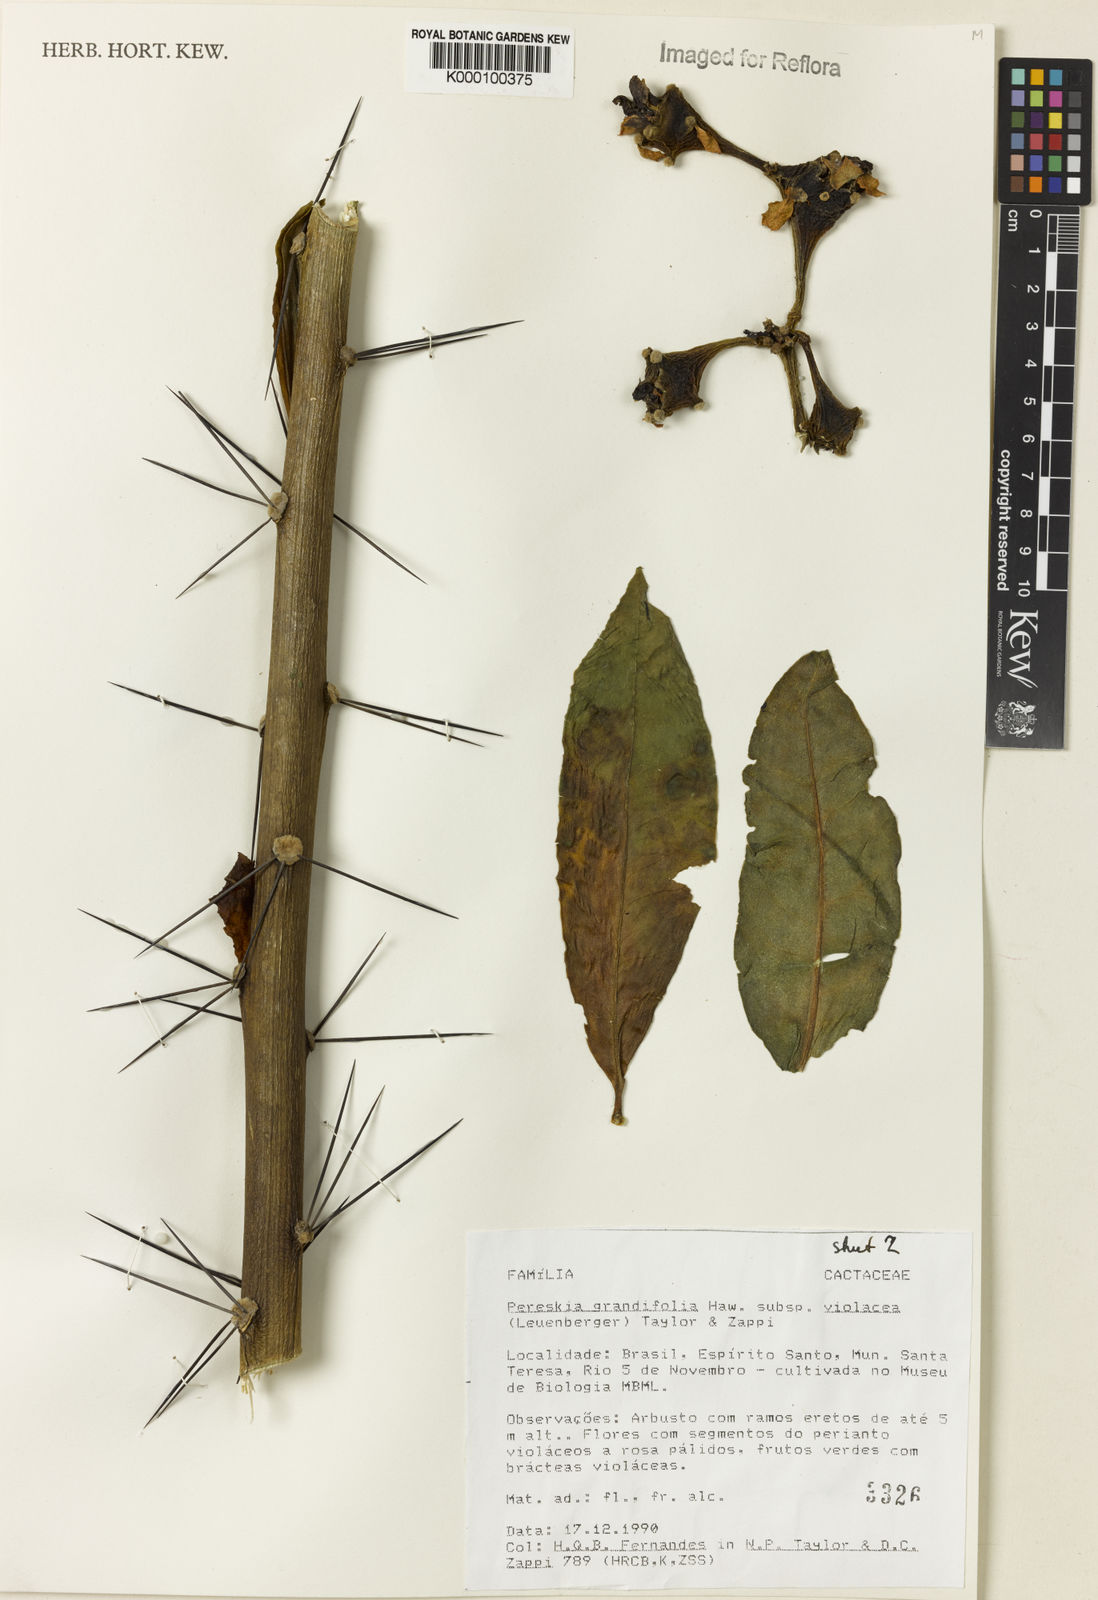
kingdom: Plantae
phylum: Tracheophyta
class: Magnoliopsida
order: Caryophyllales
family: Cactaceae
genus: Pereskia
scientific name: Pereskia grandifolia
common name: Rose cactus
